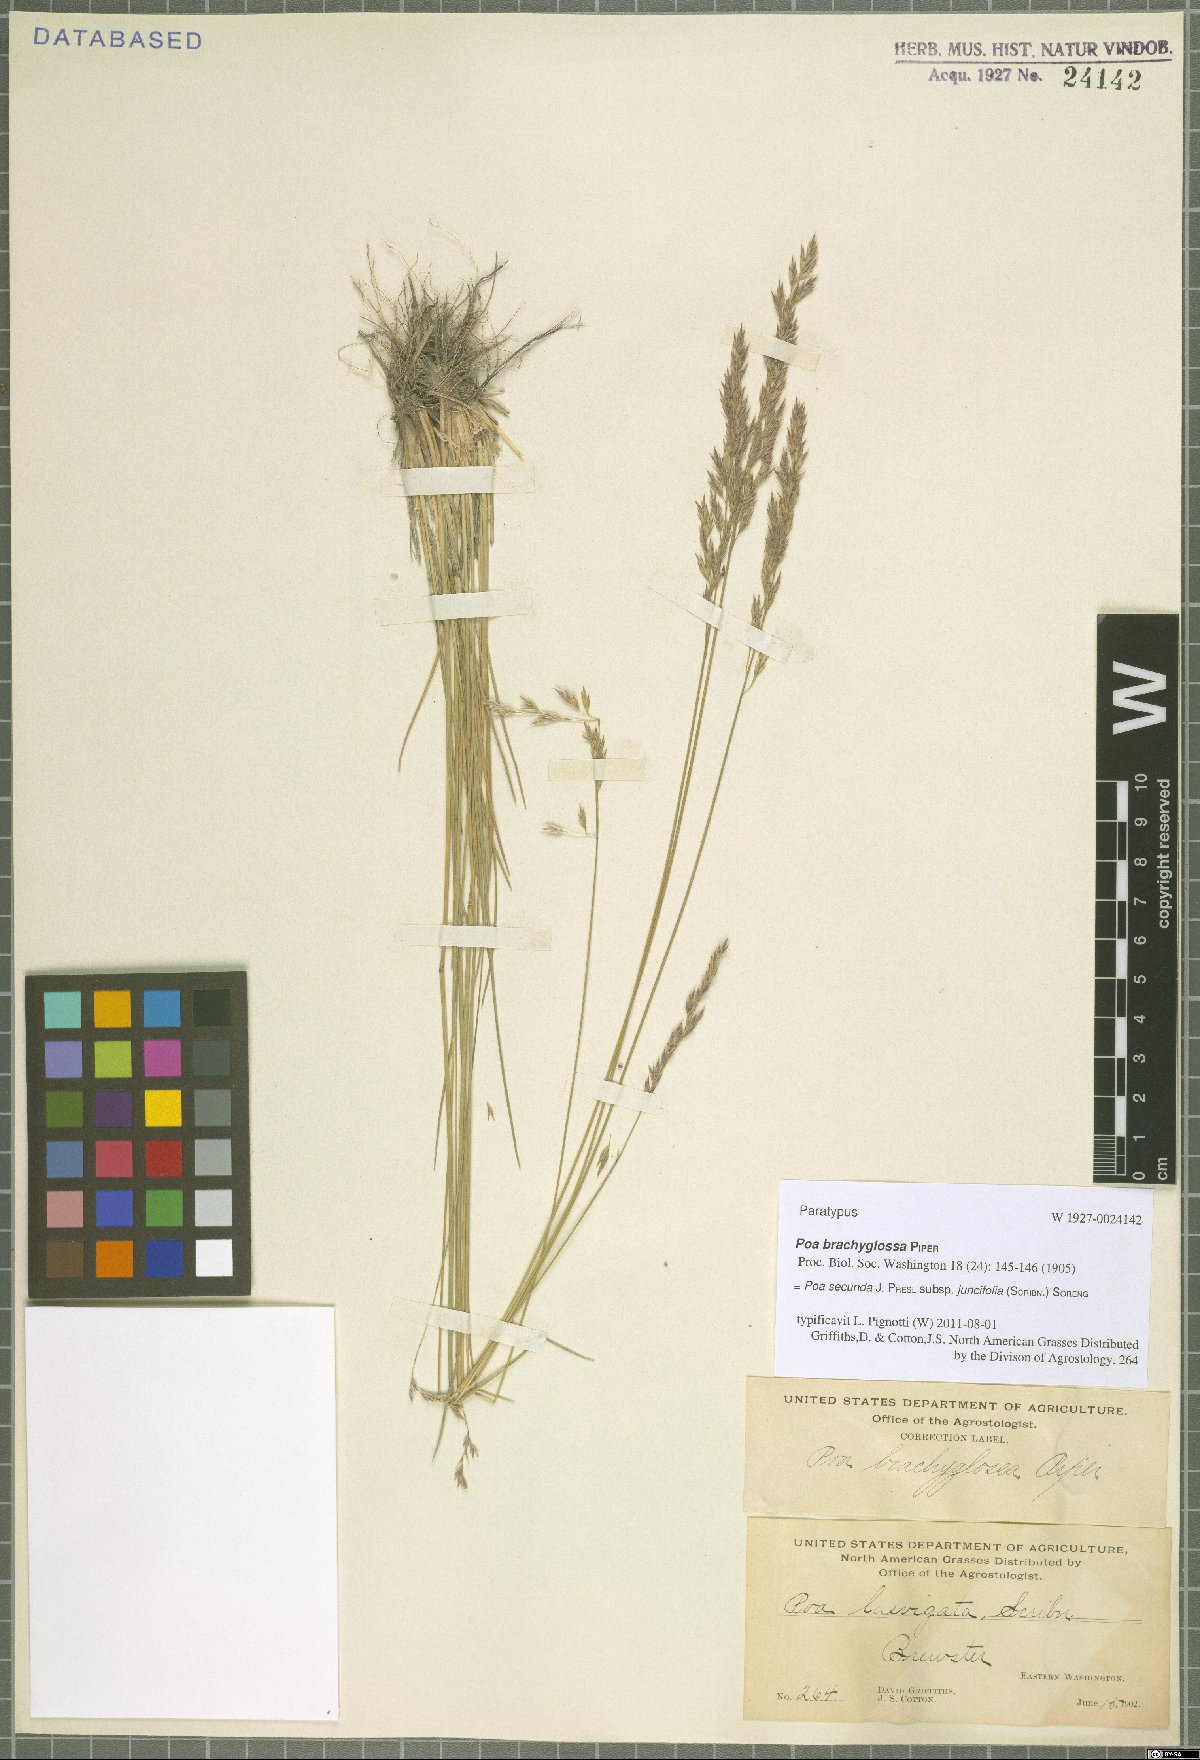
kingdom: Plantae
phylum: Tracheophyta
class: Liliopsida
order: Poales
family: Poaceae
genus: Poa
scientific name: Poa secunda
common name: Sandberg bluegrass
